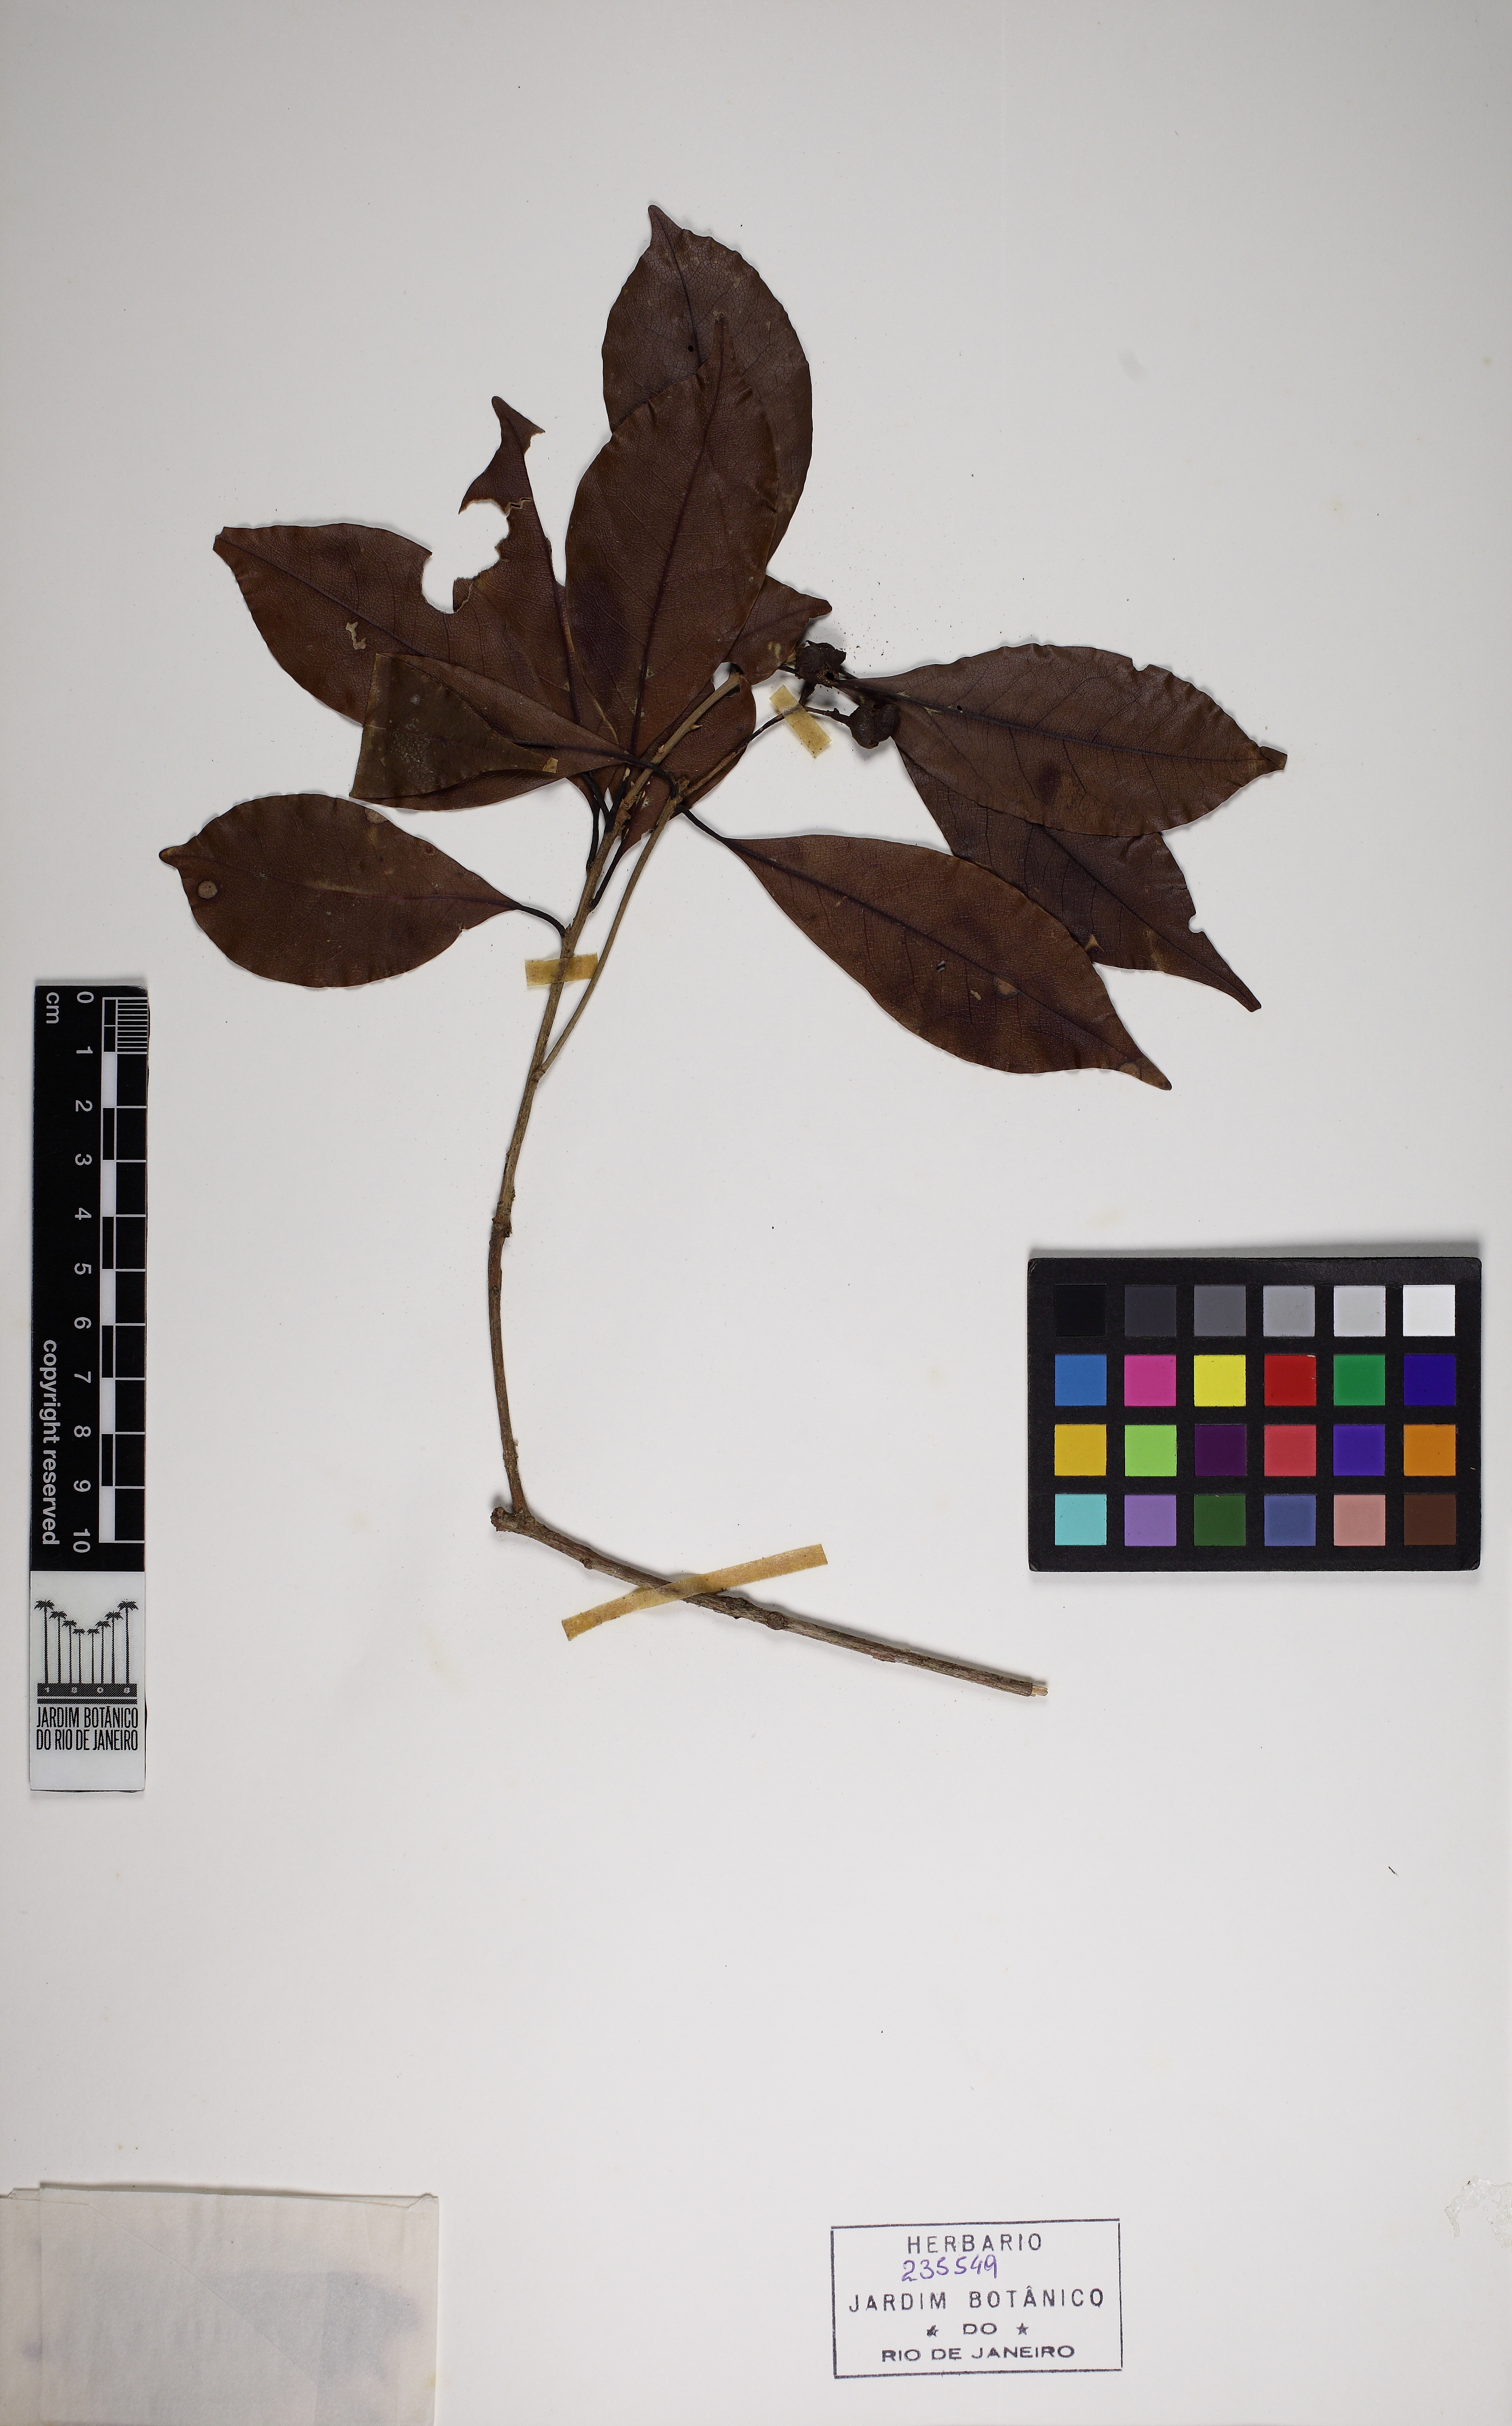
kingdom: Plantae
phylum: Tracheophyta
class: Magnoliopsida
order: Laurales
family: Lauraceae
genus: Mespilodaphne
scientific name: Mespilodaphne indecora
